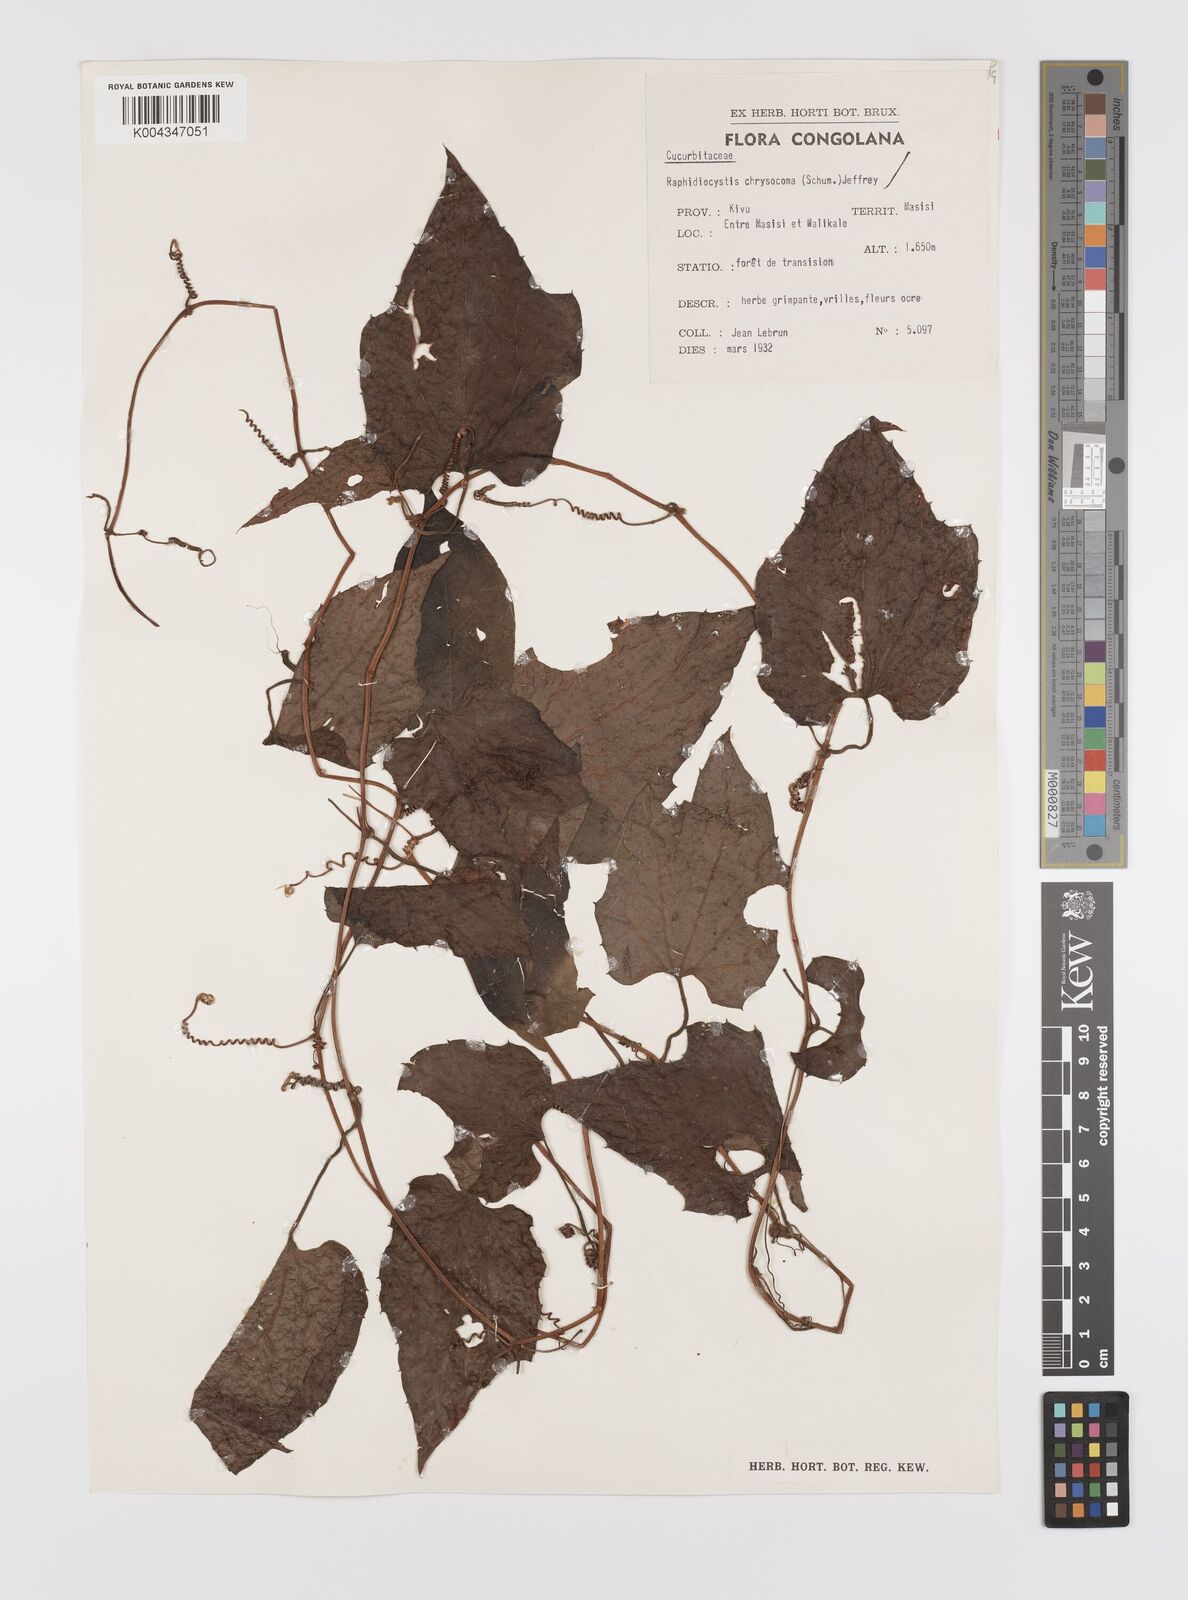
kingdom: Plantae
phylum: Tracheophyta
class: Magnoliopsida
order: Cucurbitales
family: Cucurbitaceae
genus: Raphidiocystis
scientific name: Raphidiocystis chrysocoma
